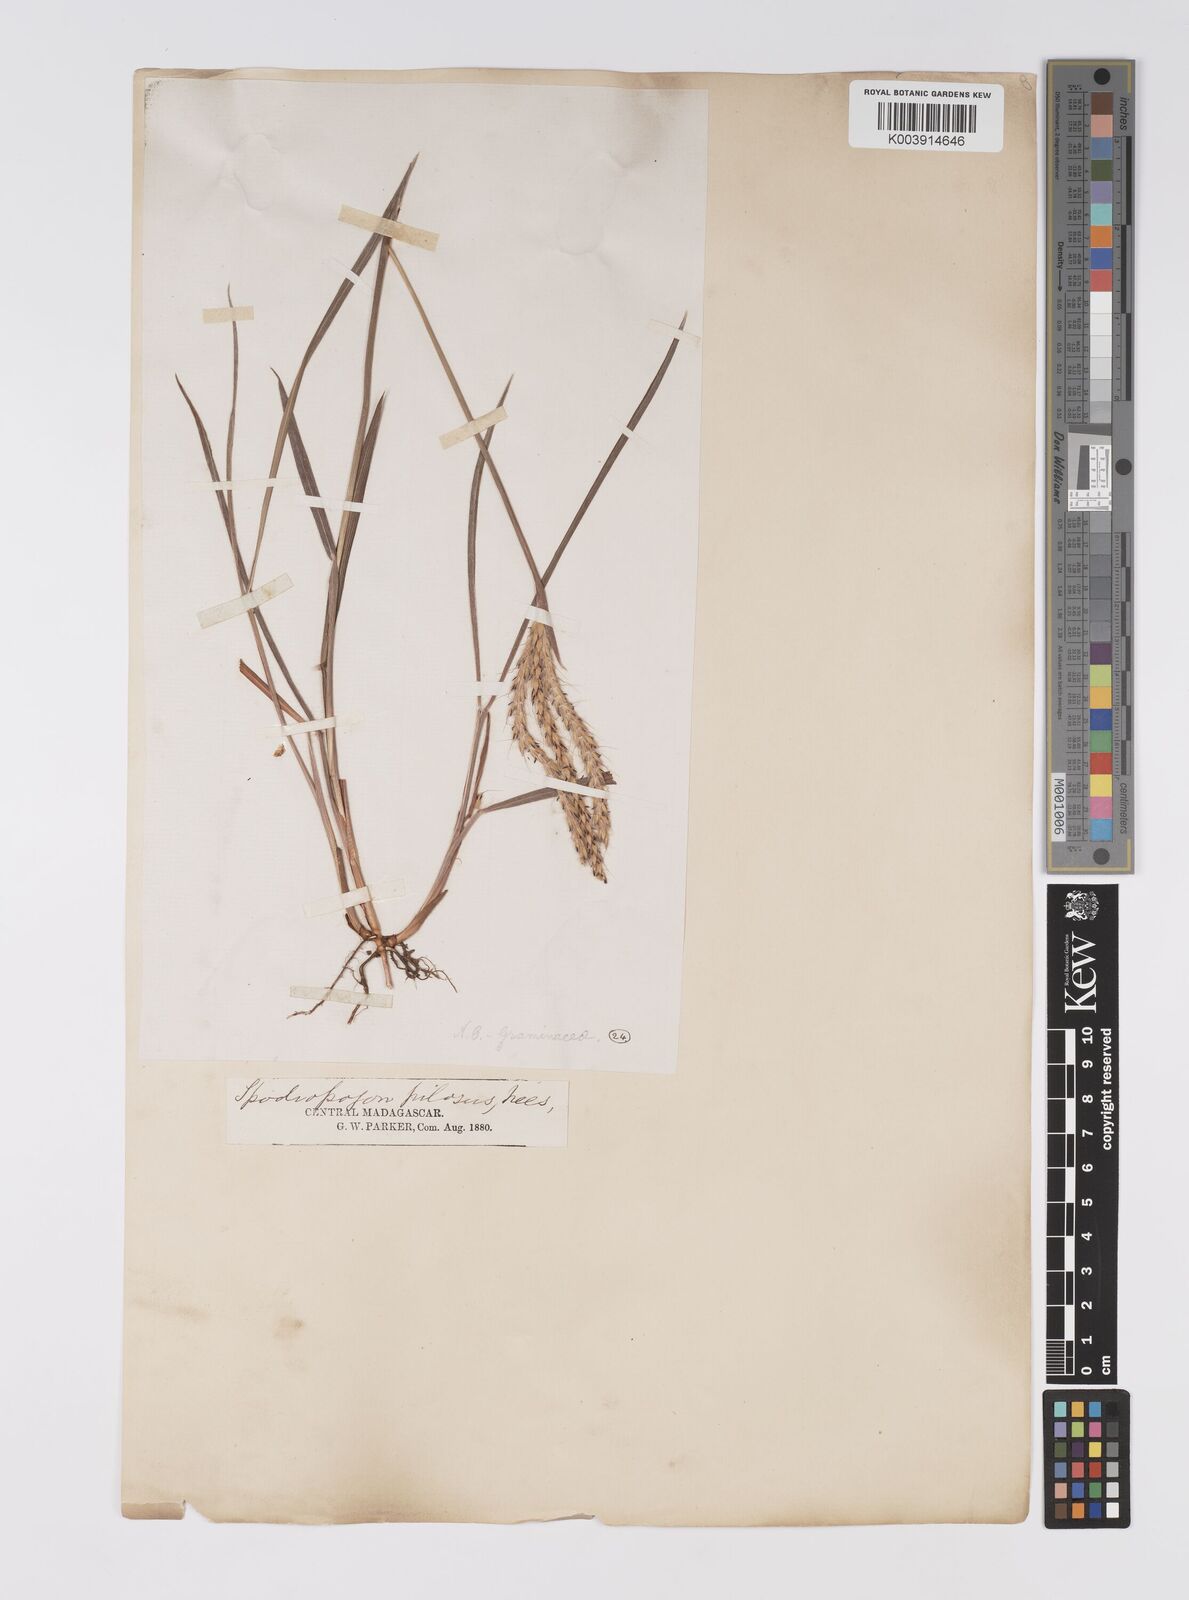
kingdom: Plantae
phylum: Tracheophyta
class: Liliopsida
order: Poales
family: Poaceae
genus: Eulalia
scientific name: Eulalia villosa
